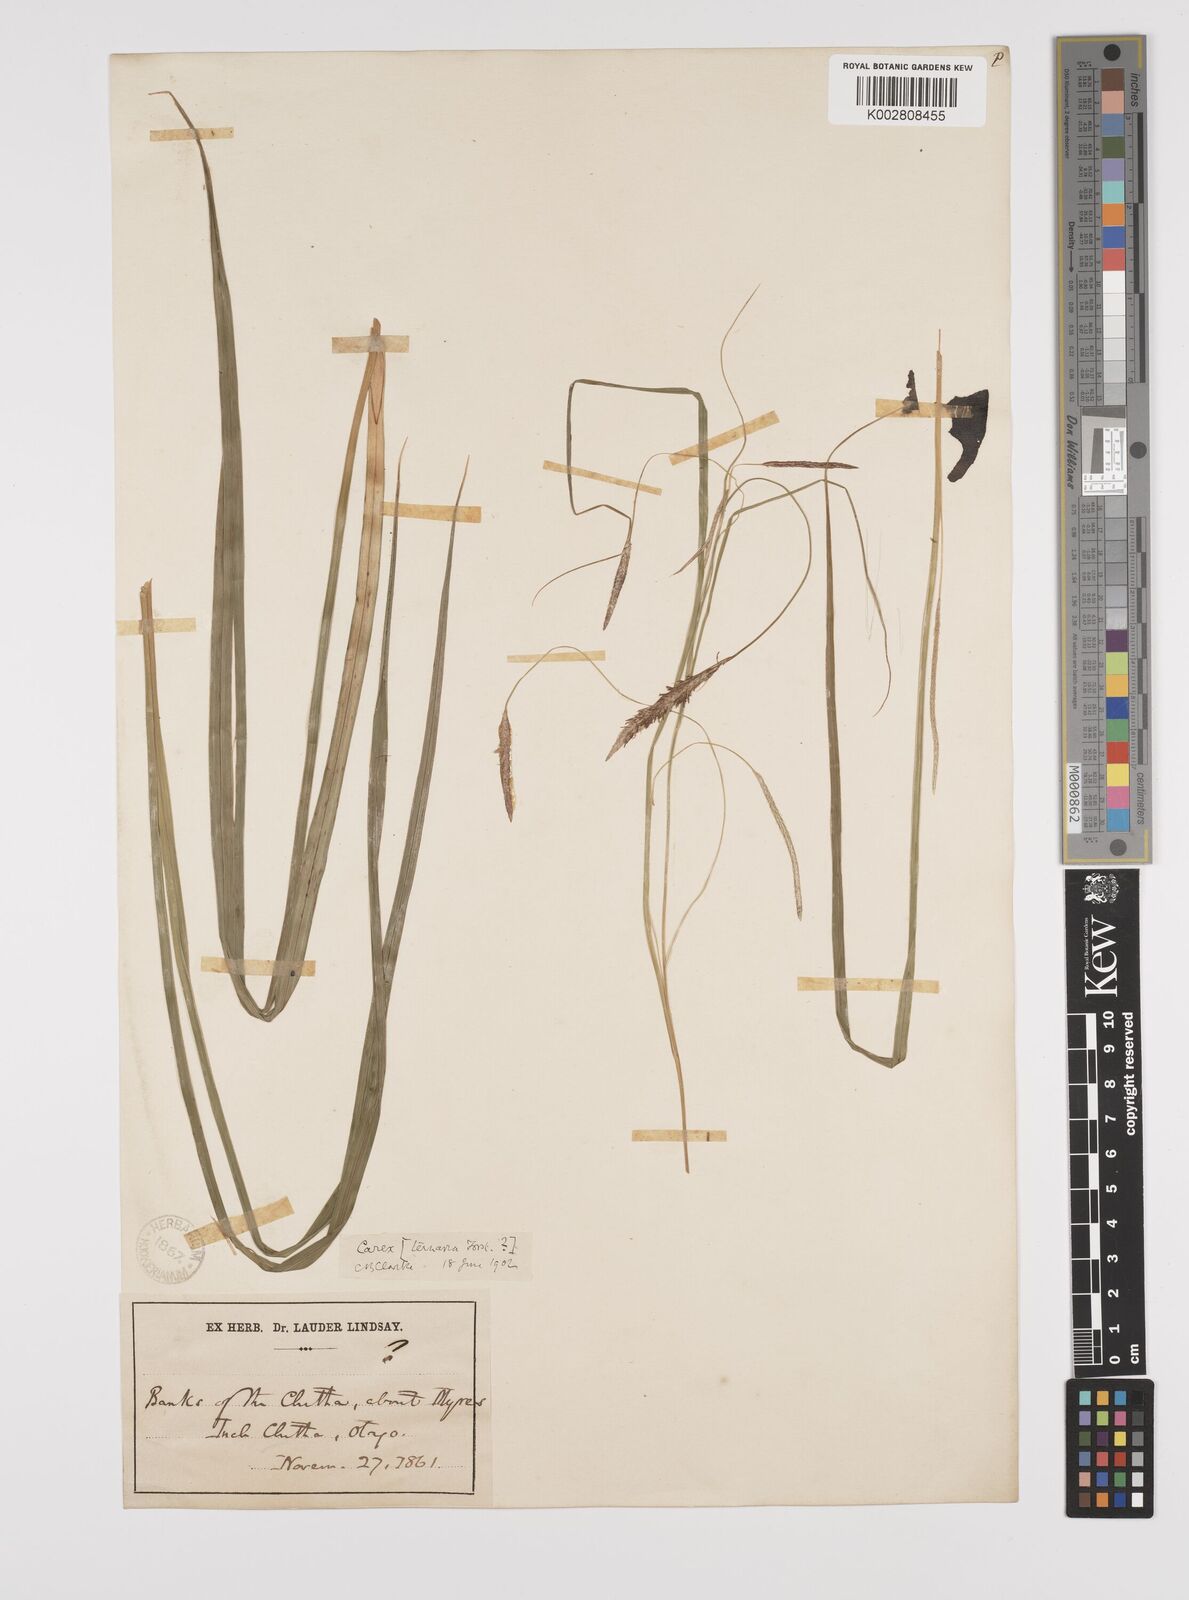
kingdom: Plantae
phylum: Tracheophyta
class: Liliopsida
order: Poales
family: Cyperaceae
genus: Carex
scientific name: Carex coriacea
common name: Rautahi
